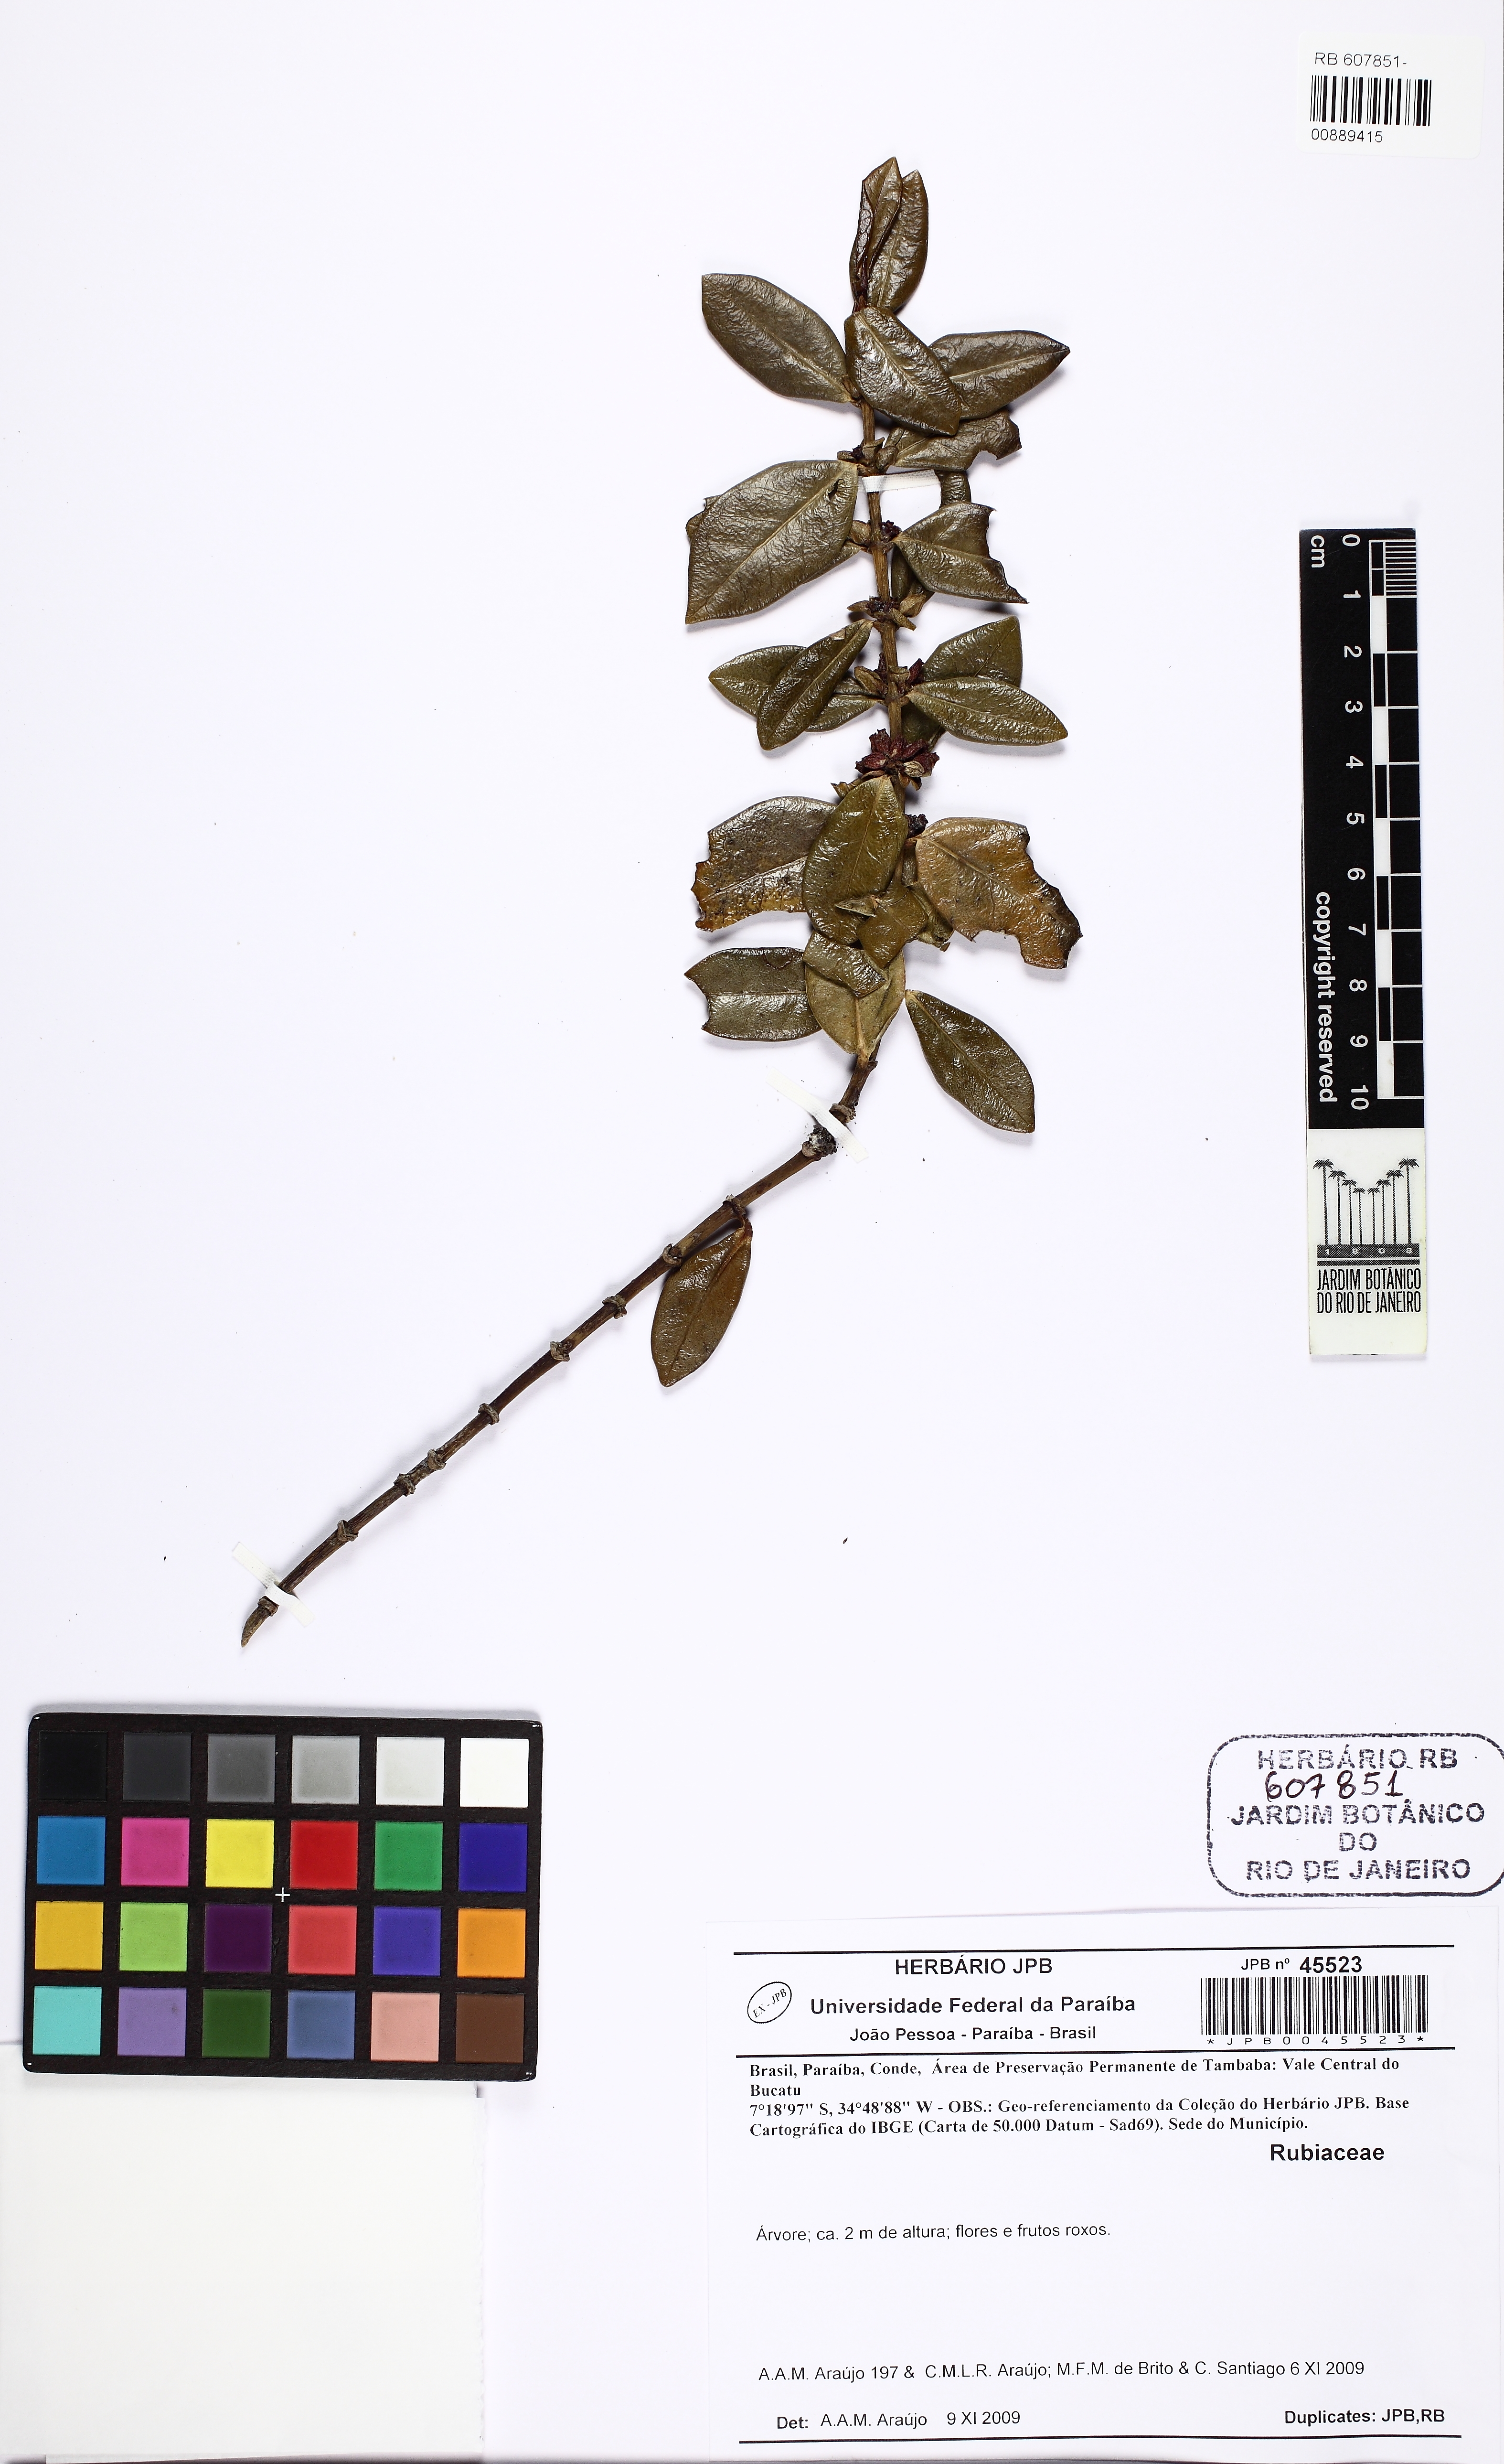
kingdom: Plantae
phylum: Tracheophyta
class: Magnoliopsida
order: Gentianales
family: Rubiaceae
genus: Salzmannia
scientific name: Salzmannia nitida
